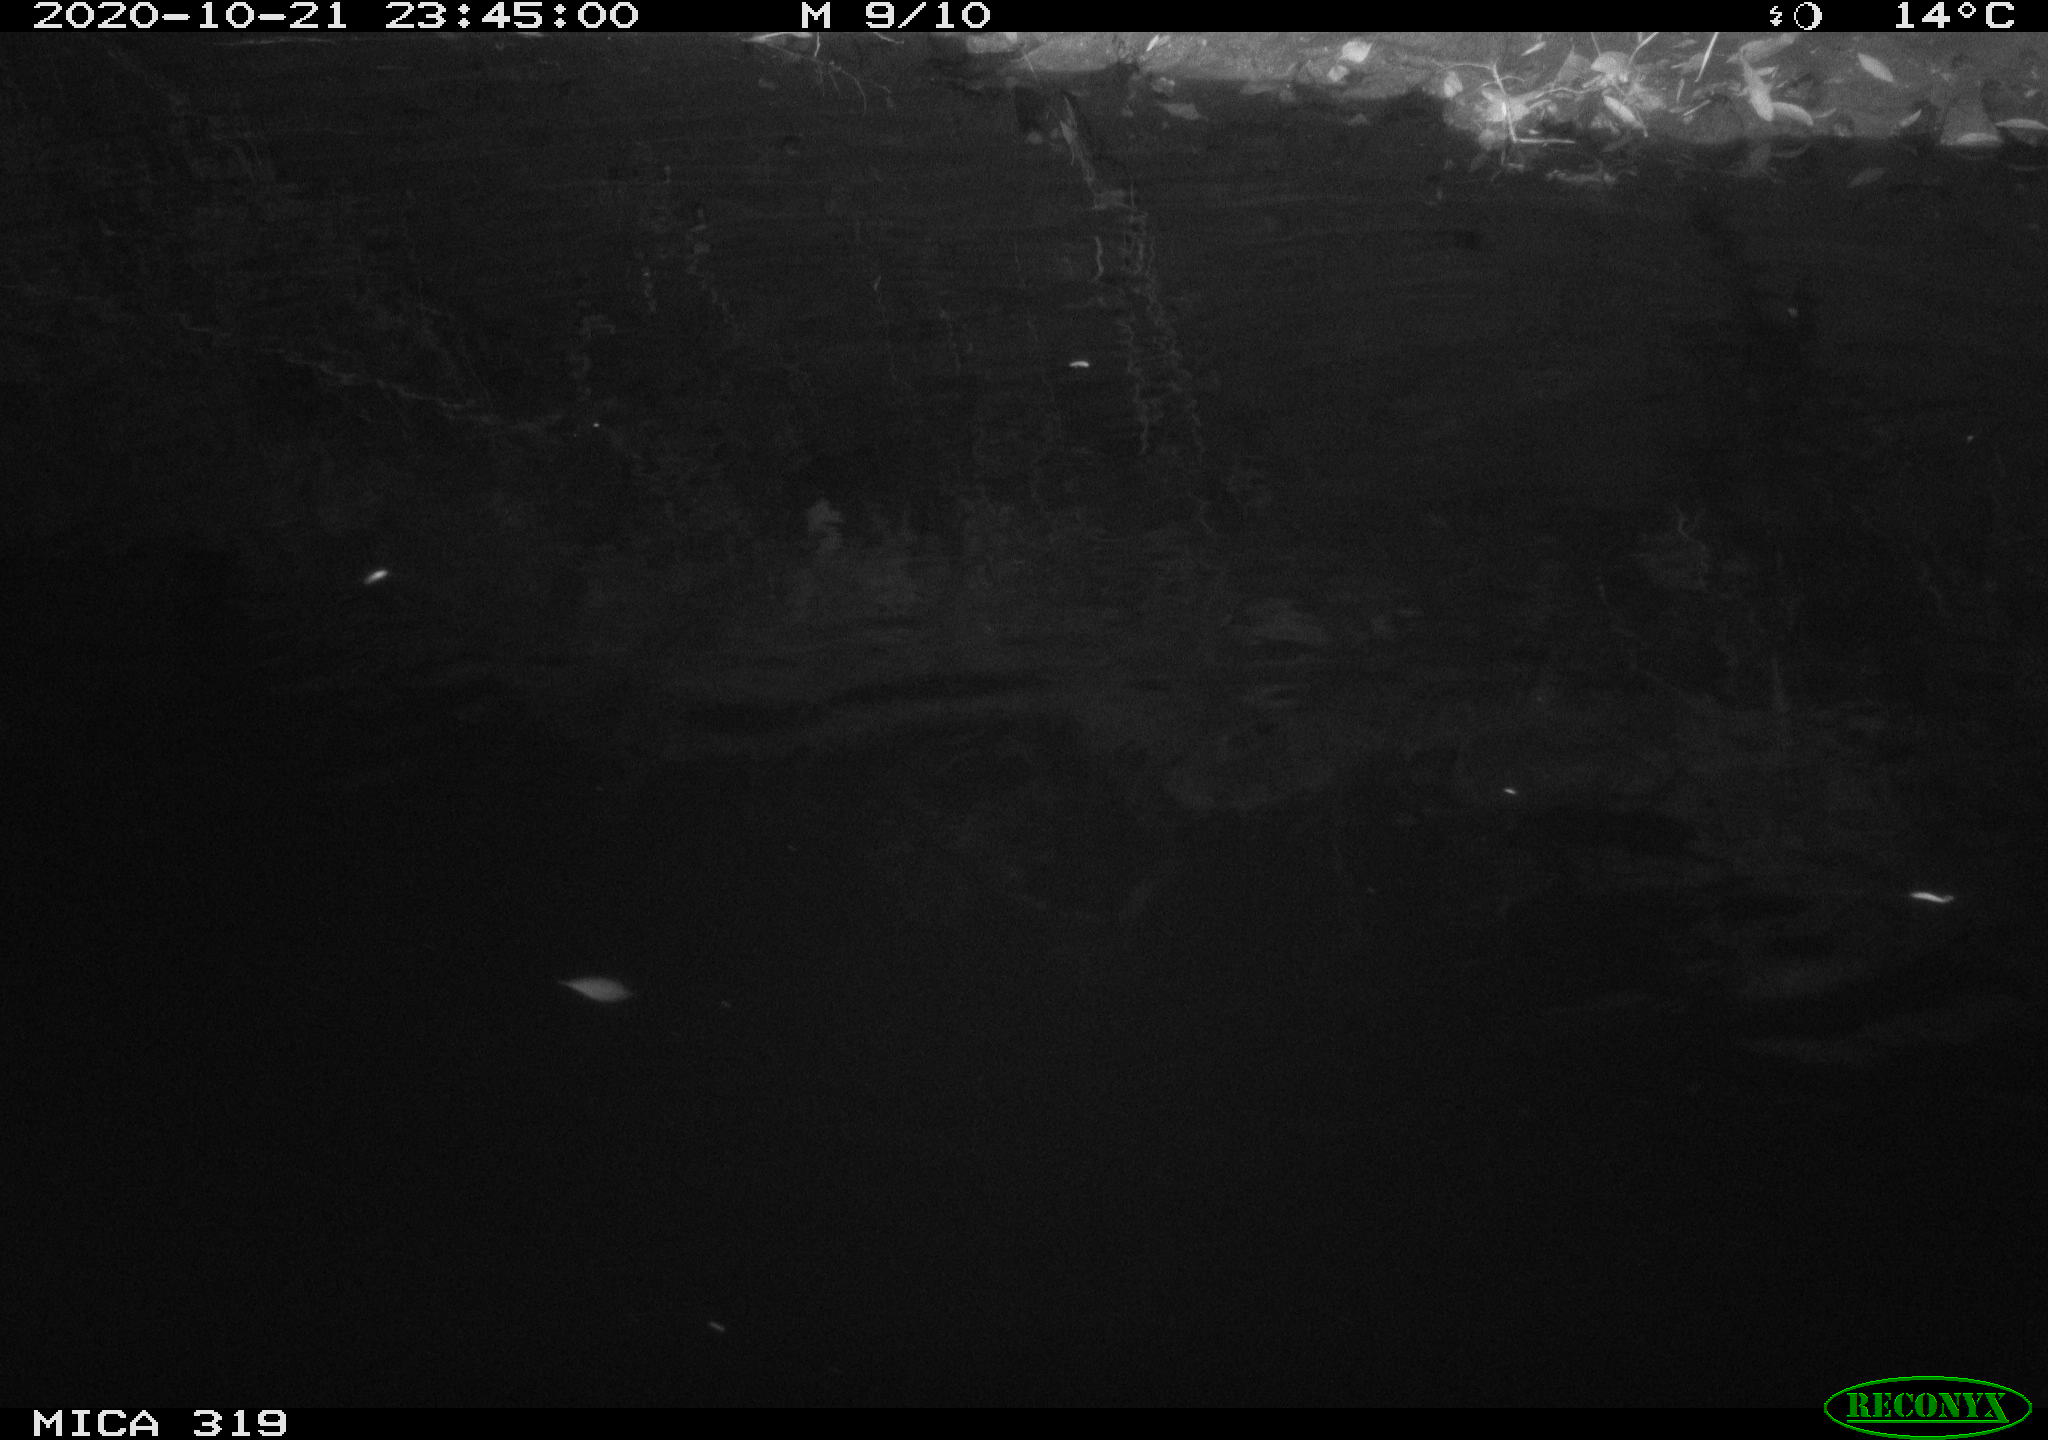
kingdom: Animalia
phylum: Chordata
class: Mammalia
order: Rodentia
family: Muridae
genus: Rattus
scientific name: Rattus norvegicus
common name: Brown rat
